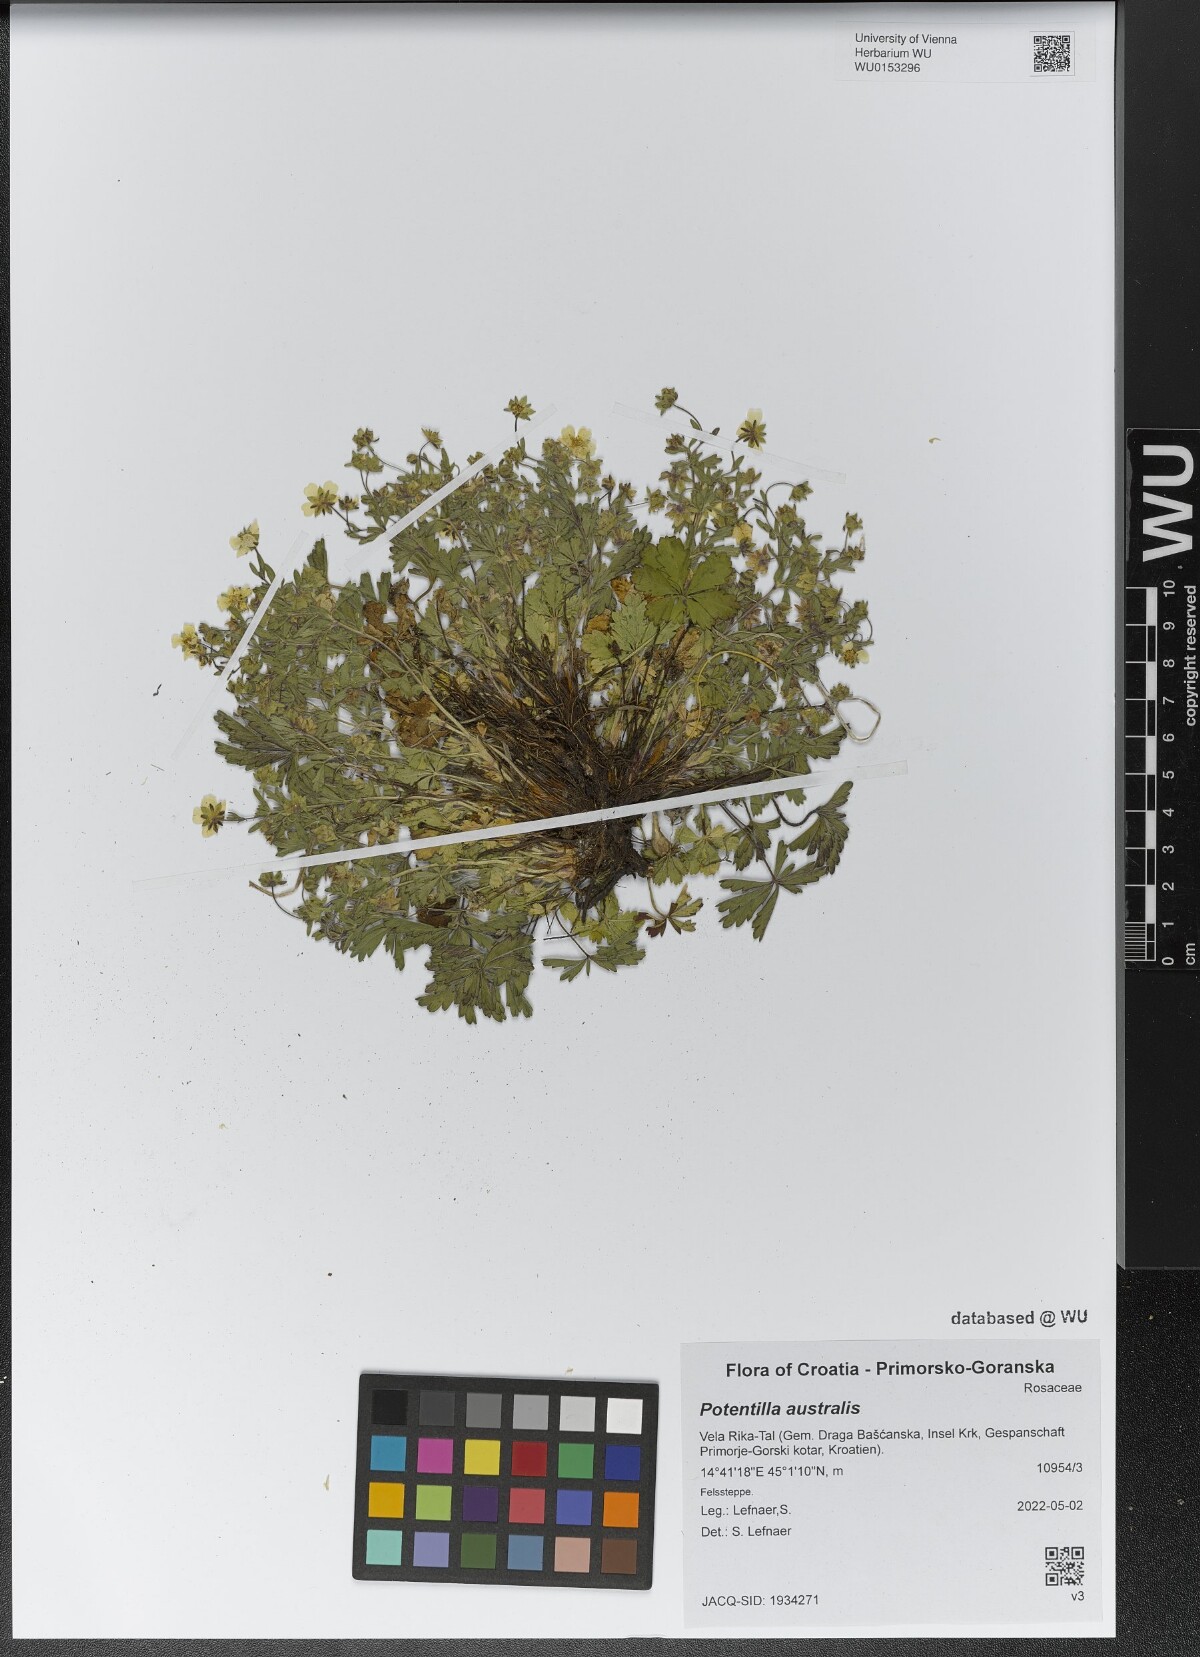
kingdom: Plantae
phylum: Tracheophyta
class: Magnoliopsida
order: Rosales
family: Rosaceae
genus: Potentilla
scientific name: Potentilla heptaphylla
